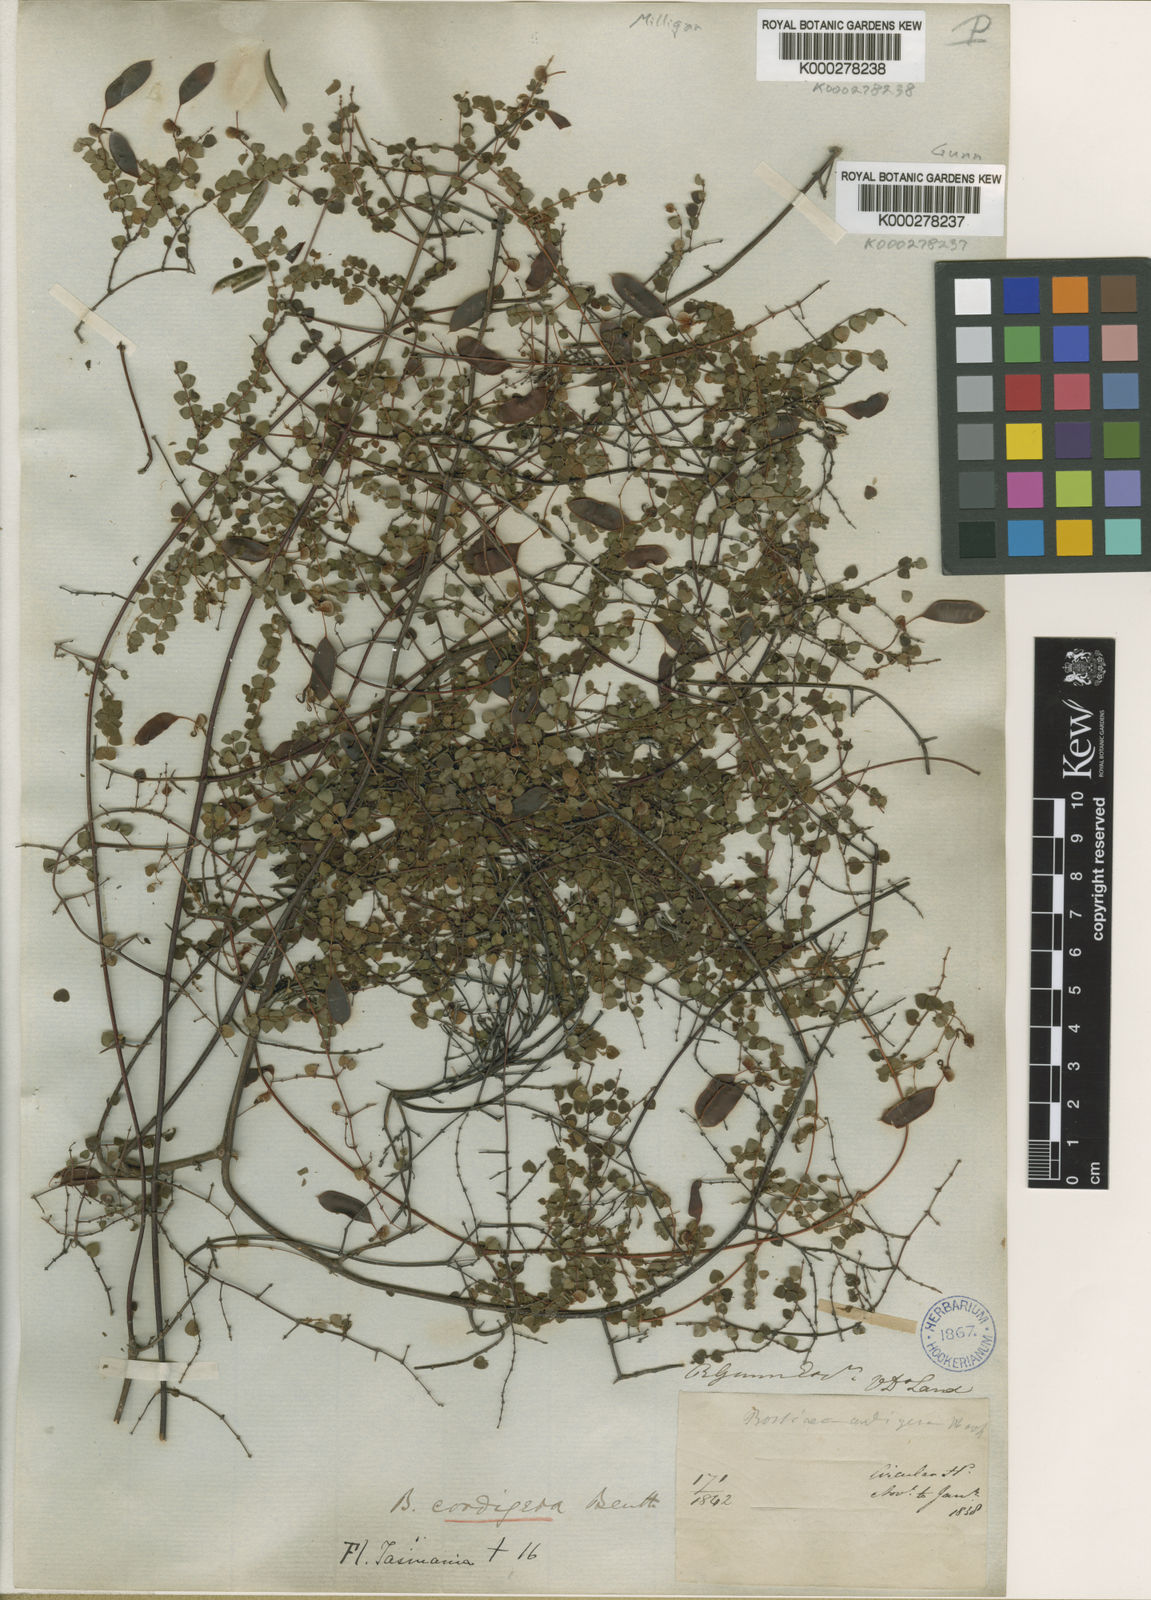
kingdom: Plantae
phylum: Tracheophyta
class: Magnoliopsida
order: Fabales
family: Fabaceae
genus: Bossiaea
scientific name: Bossiaea hendersonii
